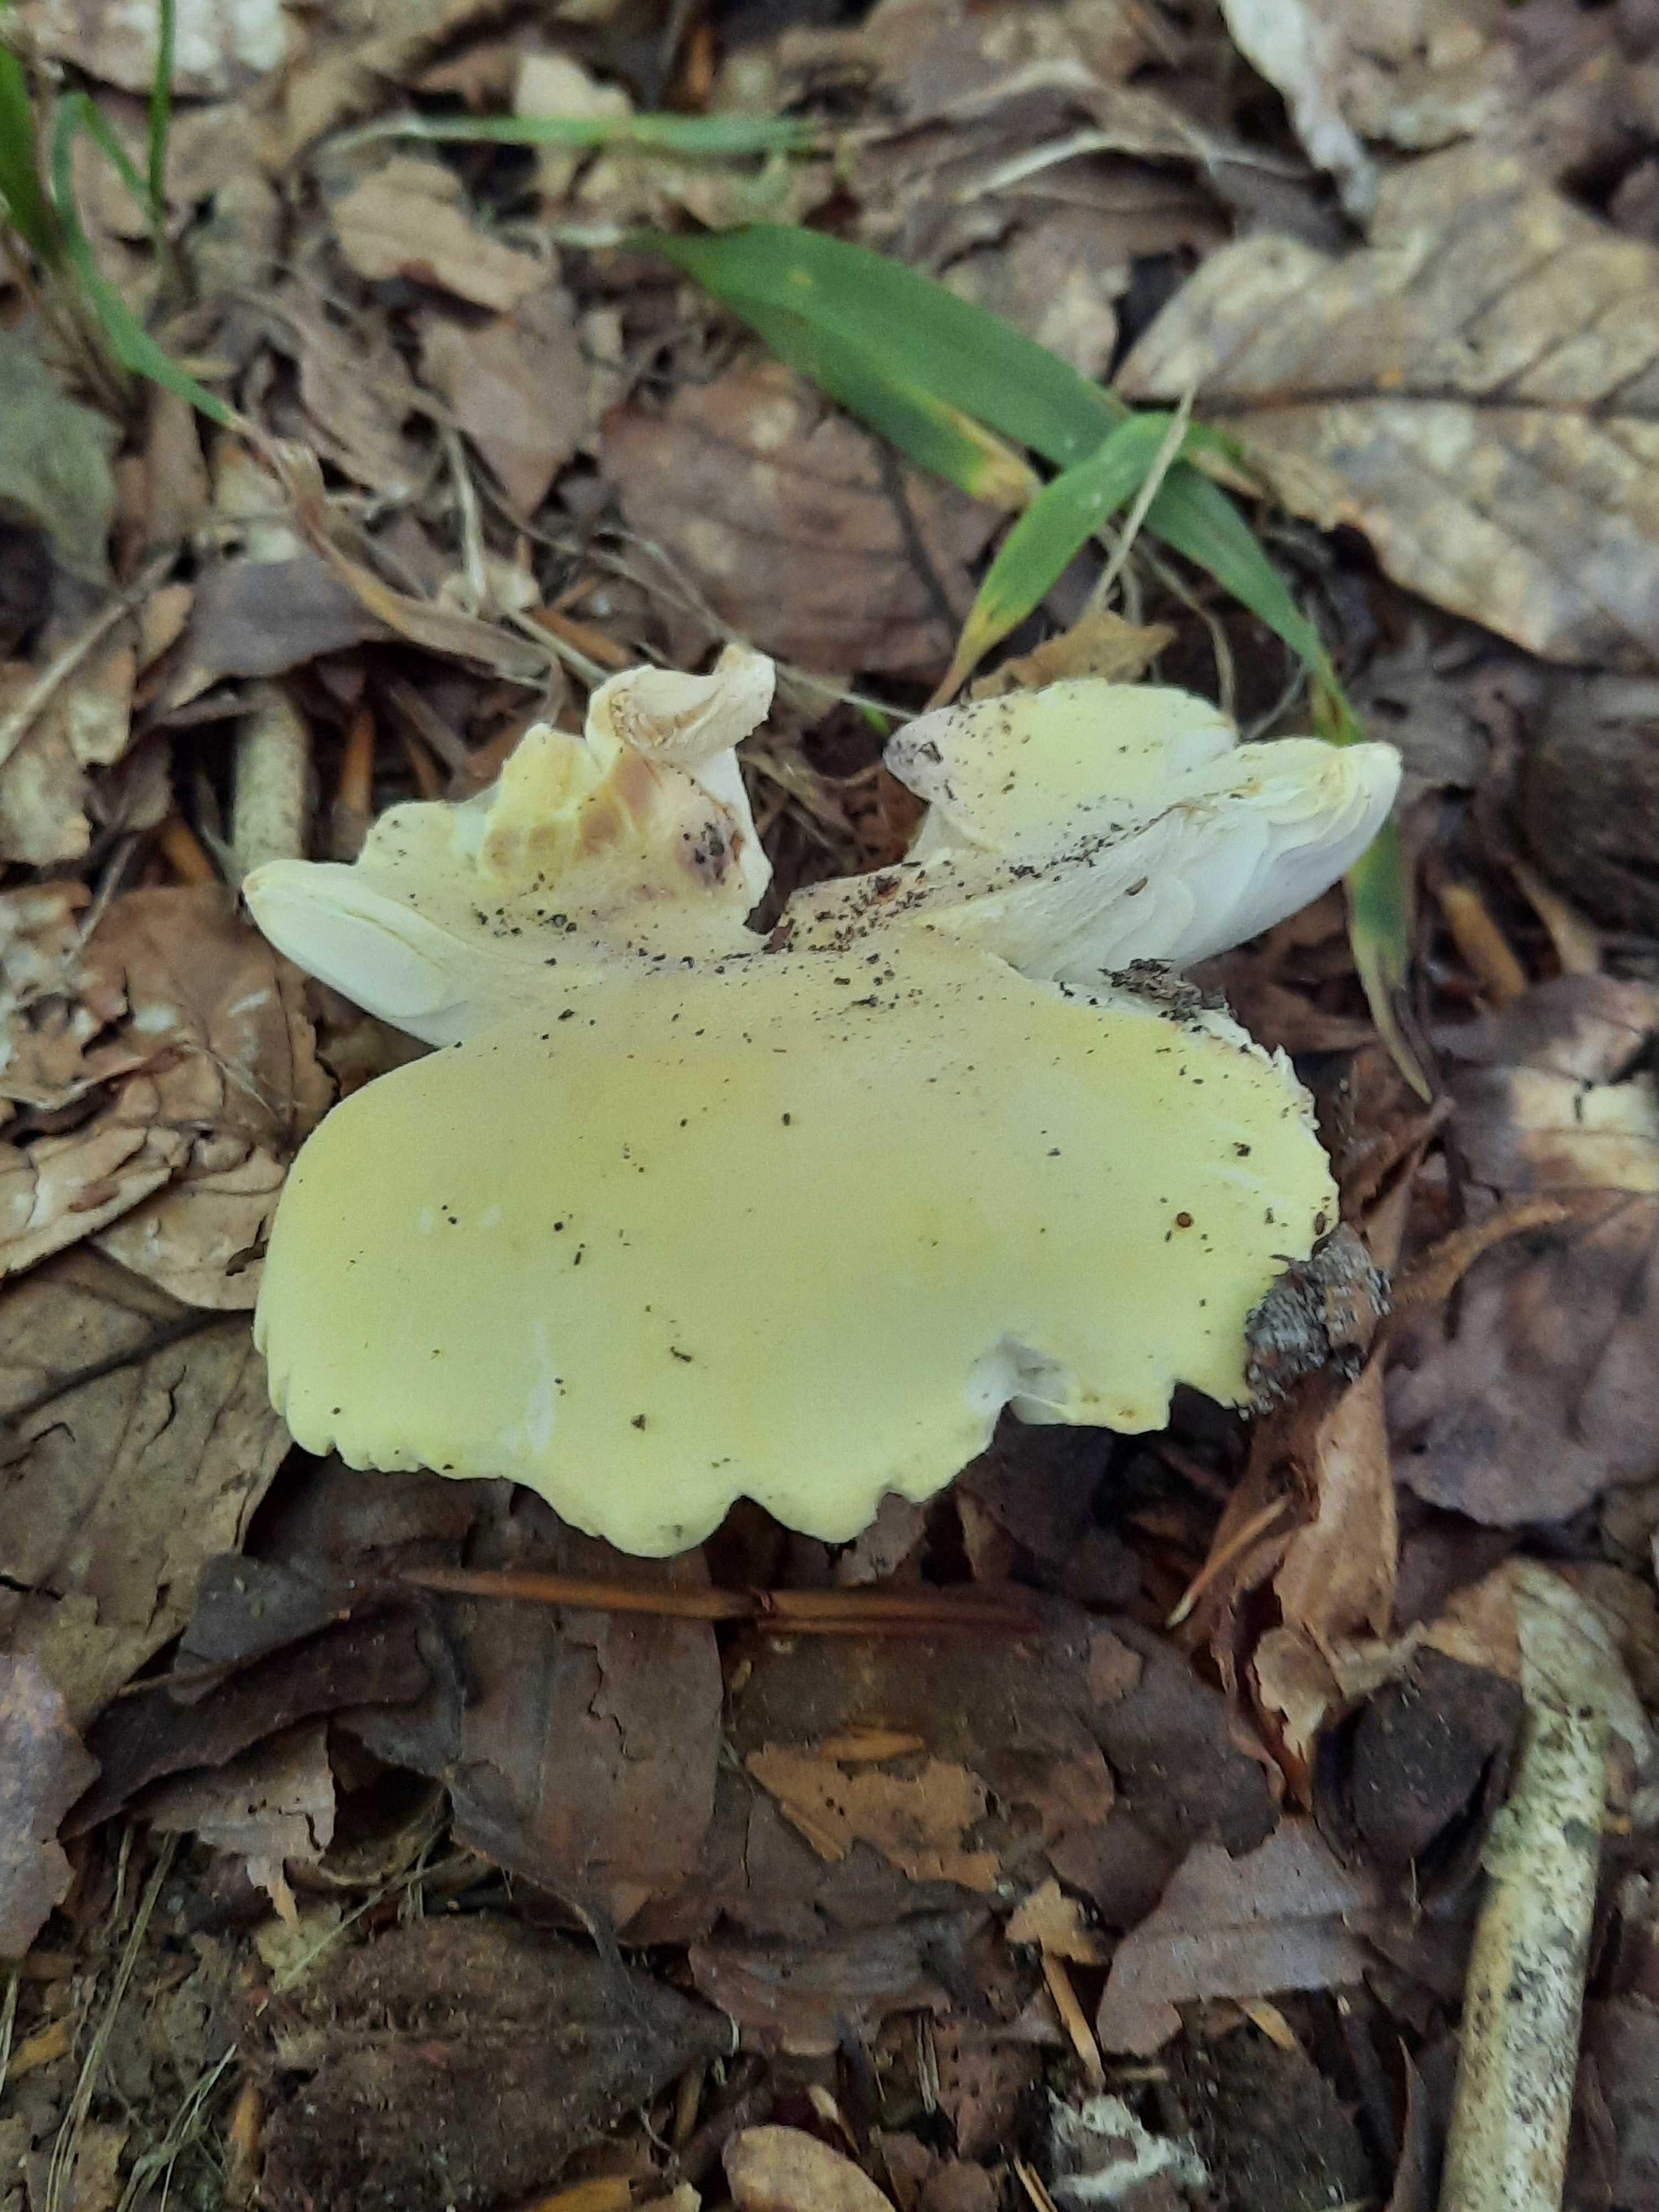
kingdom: Fungi
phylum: Basidiomycota
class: Agaricomycetes
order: Russulales
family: Russulaceae
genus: Russula
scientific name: Russula violeipes
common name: ferskengul skørhat
